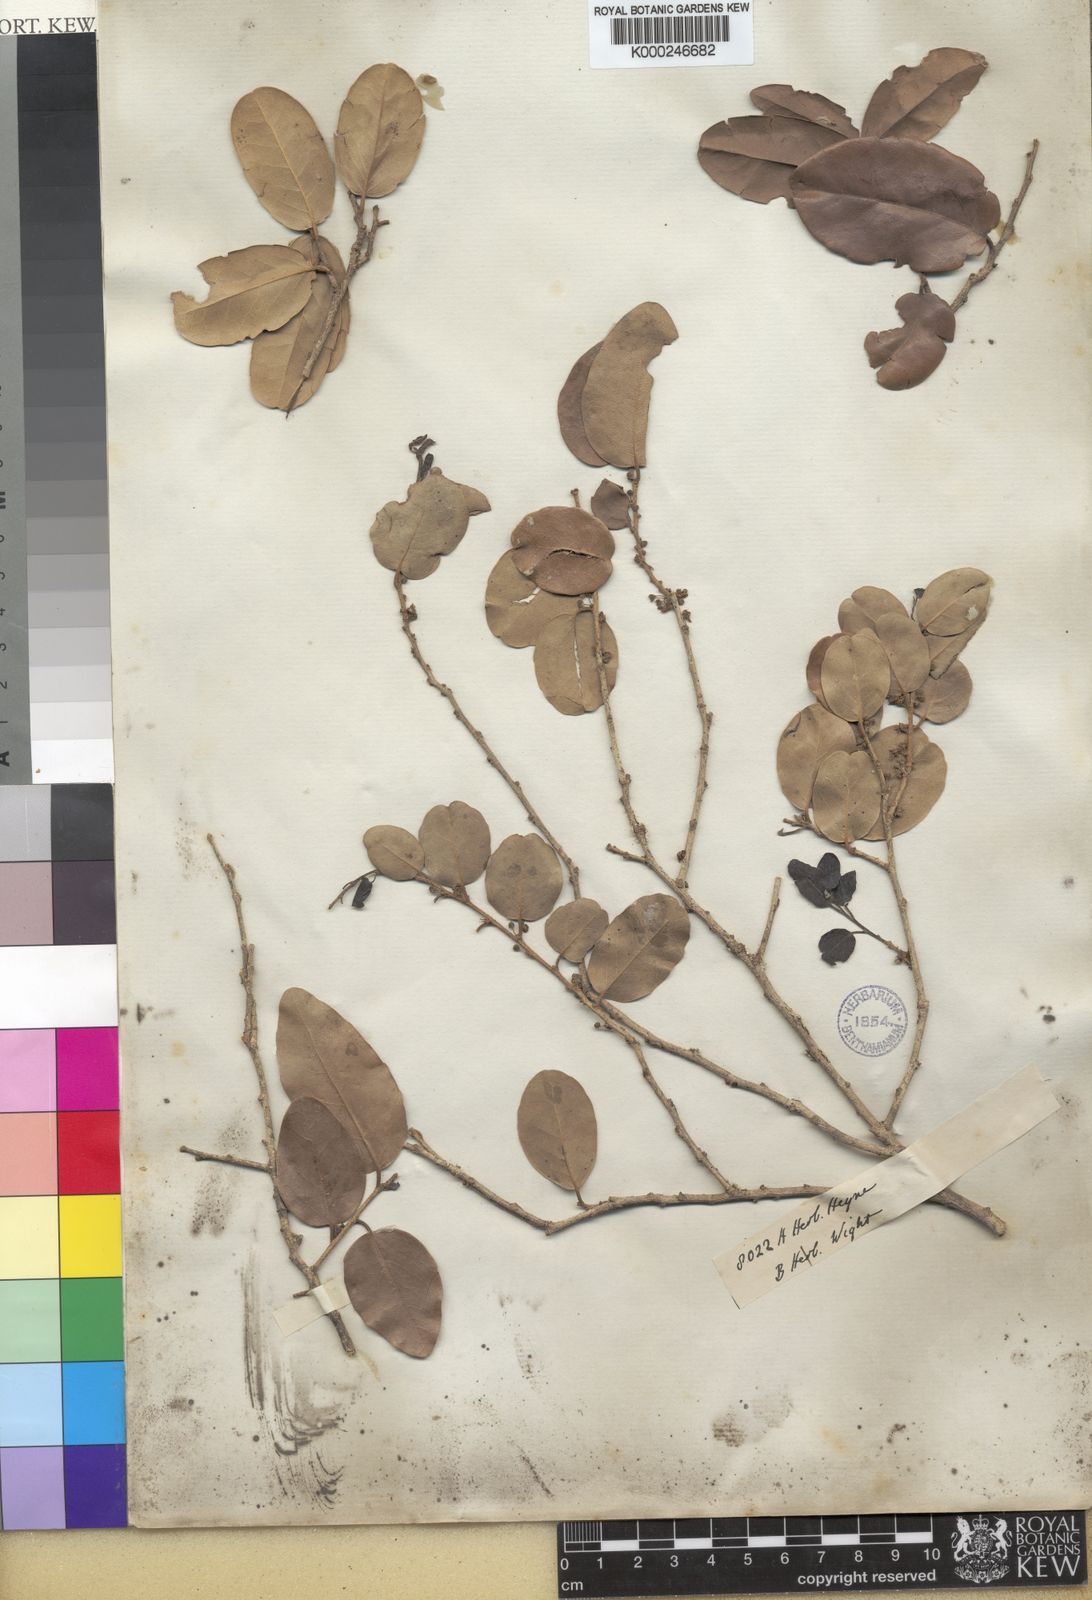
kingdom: Plantae
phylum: Tracheophyta
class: Magnoliopsida
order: Malpighiales
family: Putranjivaceae
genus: Drypetes
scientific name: Drypetes sepiaria
